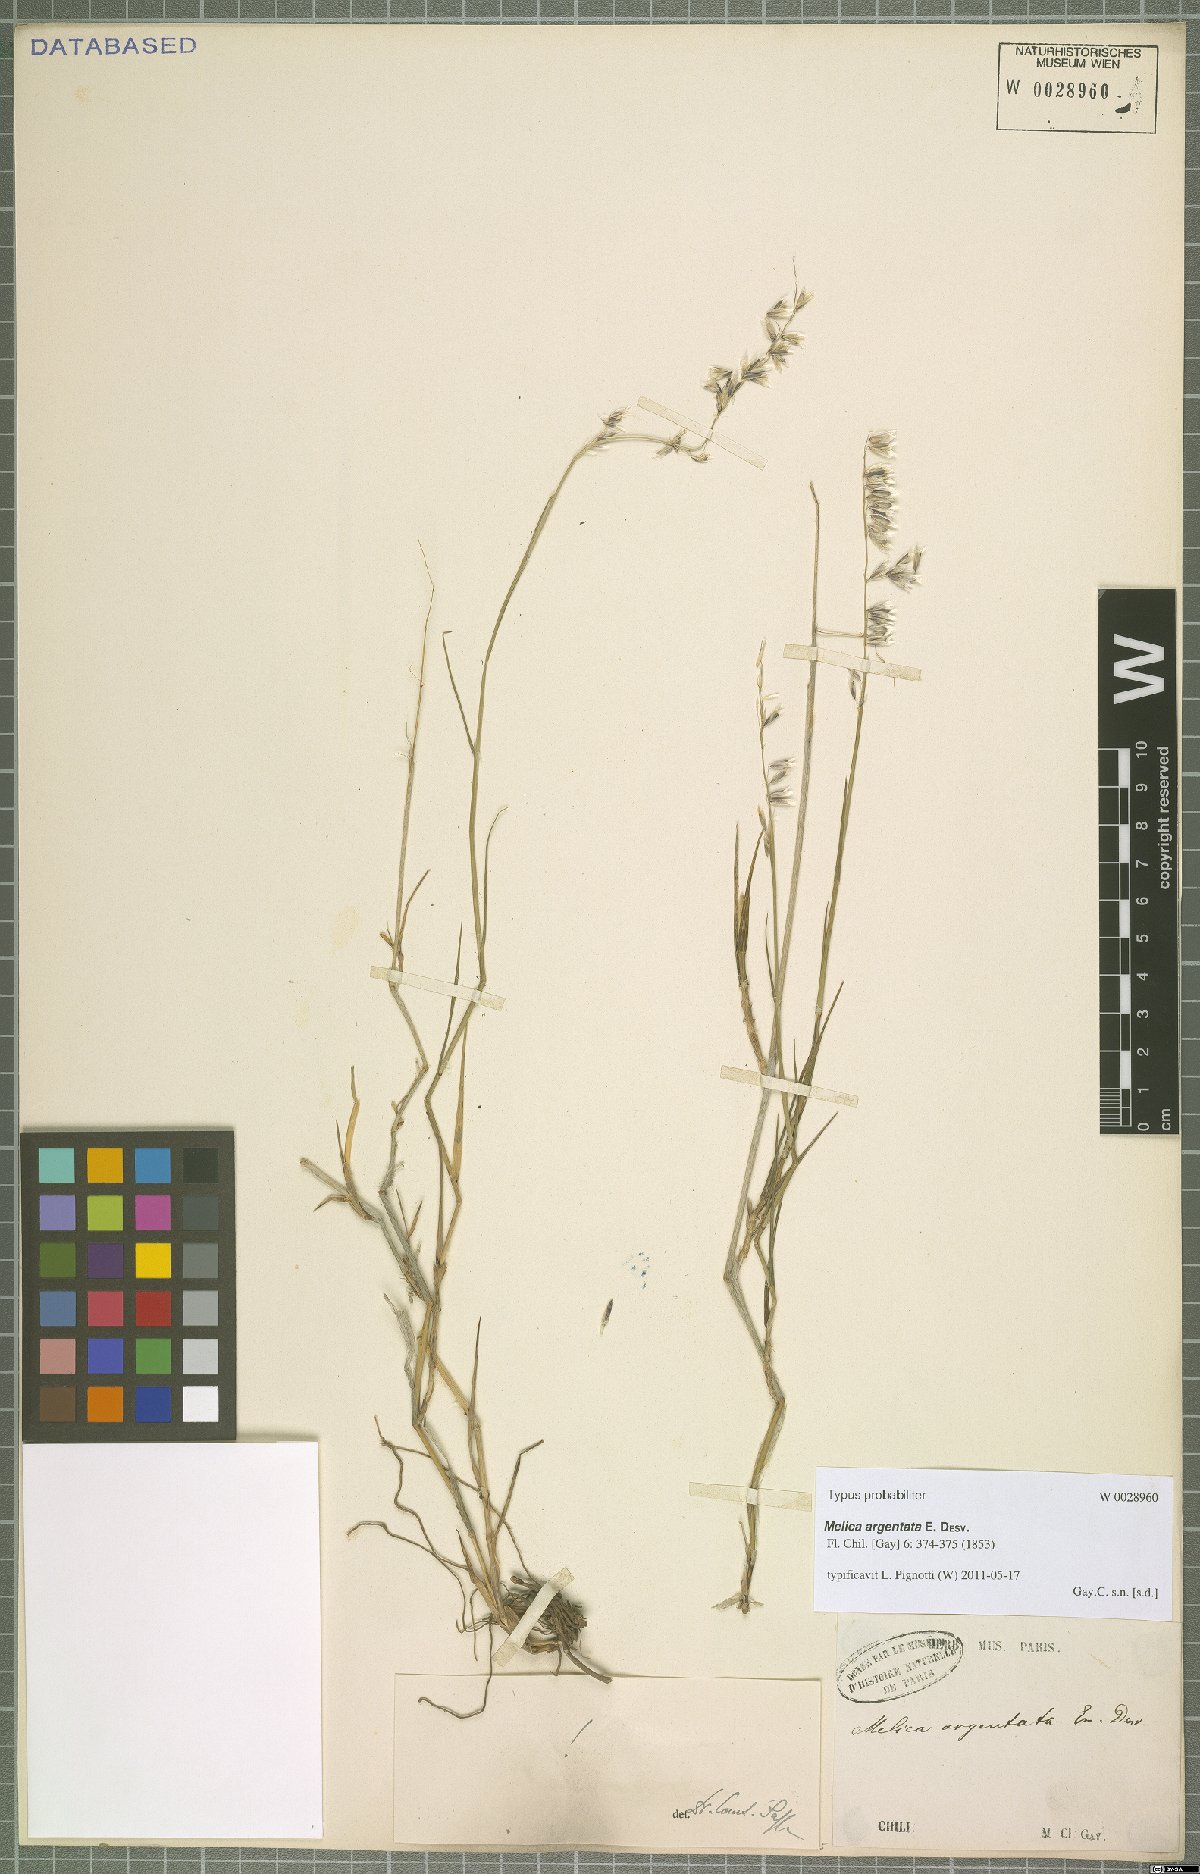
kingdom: Plantae
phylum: Tracheophyta
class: Liliopsida
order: Poales
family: Poaceae
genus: Melica
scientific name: Melica argentata
